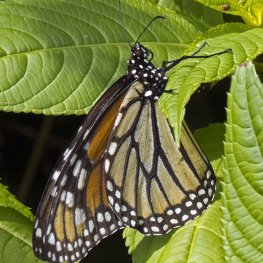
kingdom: Animalia
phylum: Arthropoda
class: Insecta
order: Lepidoptera
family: Nymphalidae
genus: Danaus
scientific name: Danaus plexippus
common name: Monarch
